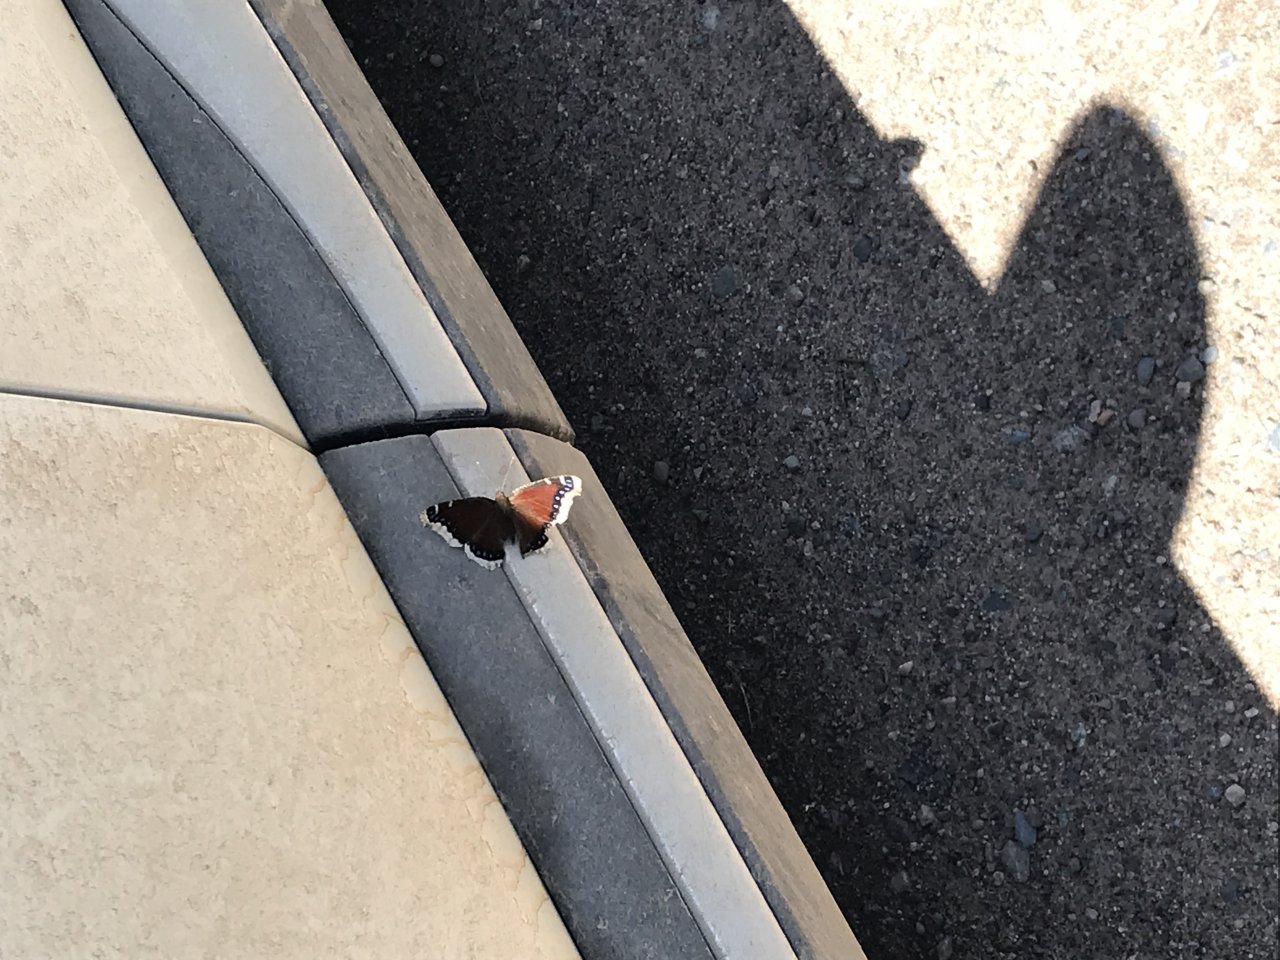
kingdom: Animalia
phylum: Arthropoda
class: Insecta
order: Lepidoptera
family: Nymphalidae
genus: Nymphalis
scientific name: Nymphalis antiopa
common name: Mourning Cloak
